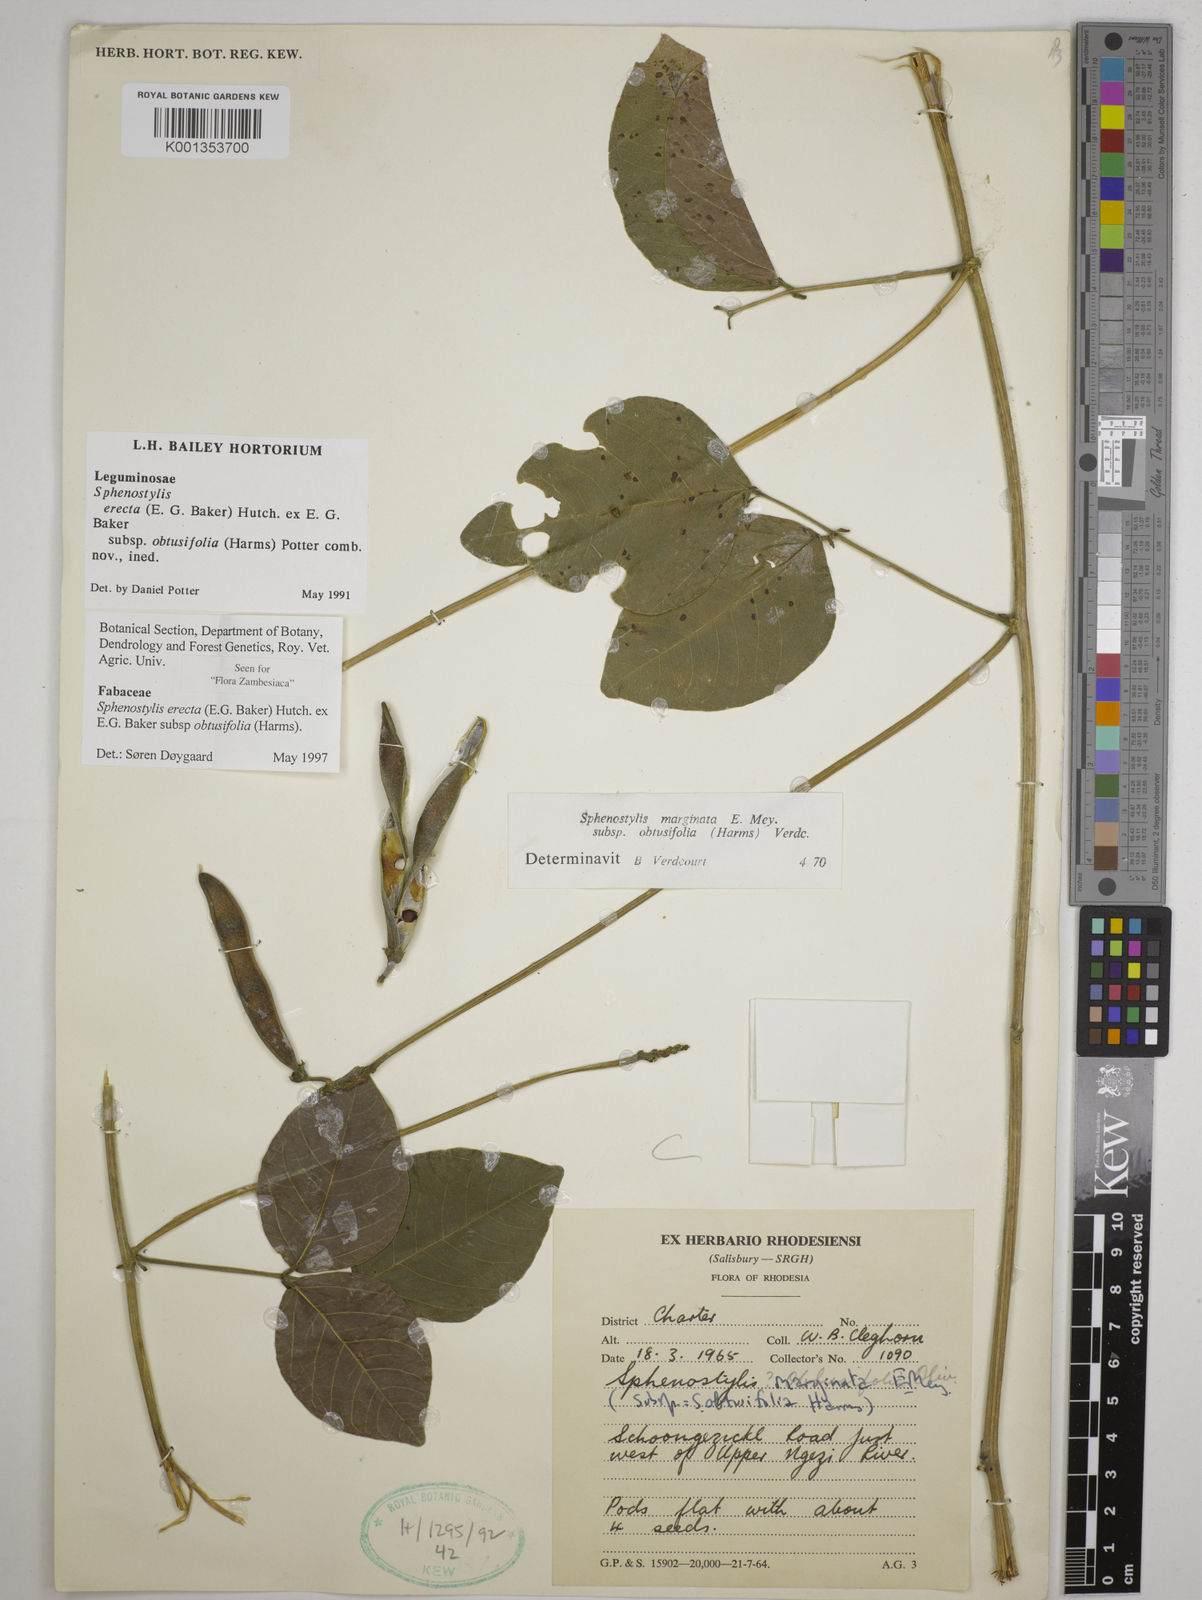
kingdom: Plantae
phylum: Tracheophyta
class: Magnoliopsida
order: Fabales
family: Fabaceae
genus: Sphenostylis
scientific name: Sphenostylis erecta
